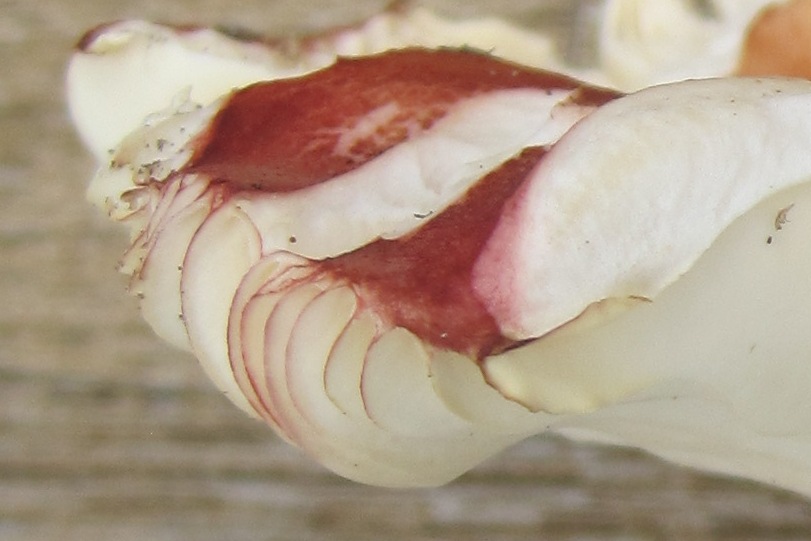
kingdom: Fungi
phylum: Basidiomycota
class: Agaricomycetes
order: Russulales
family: Russulaceae
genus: Russula
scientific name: Russula velenovskyi
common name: orangerød skørhat
